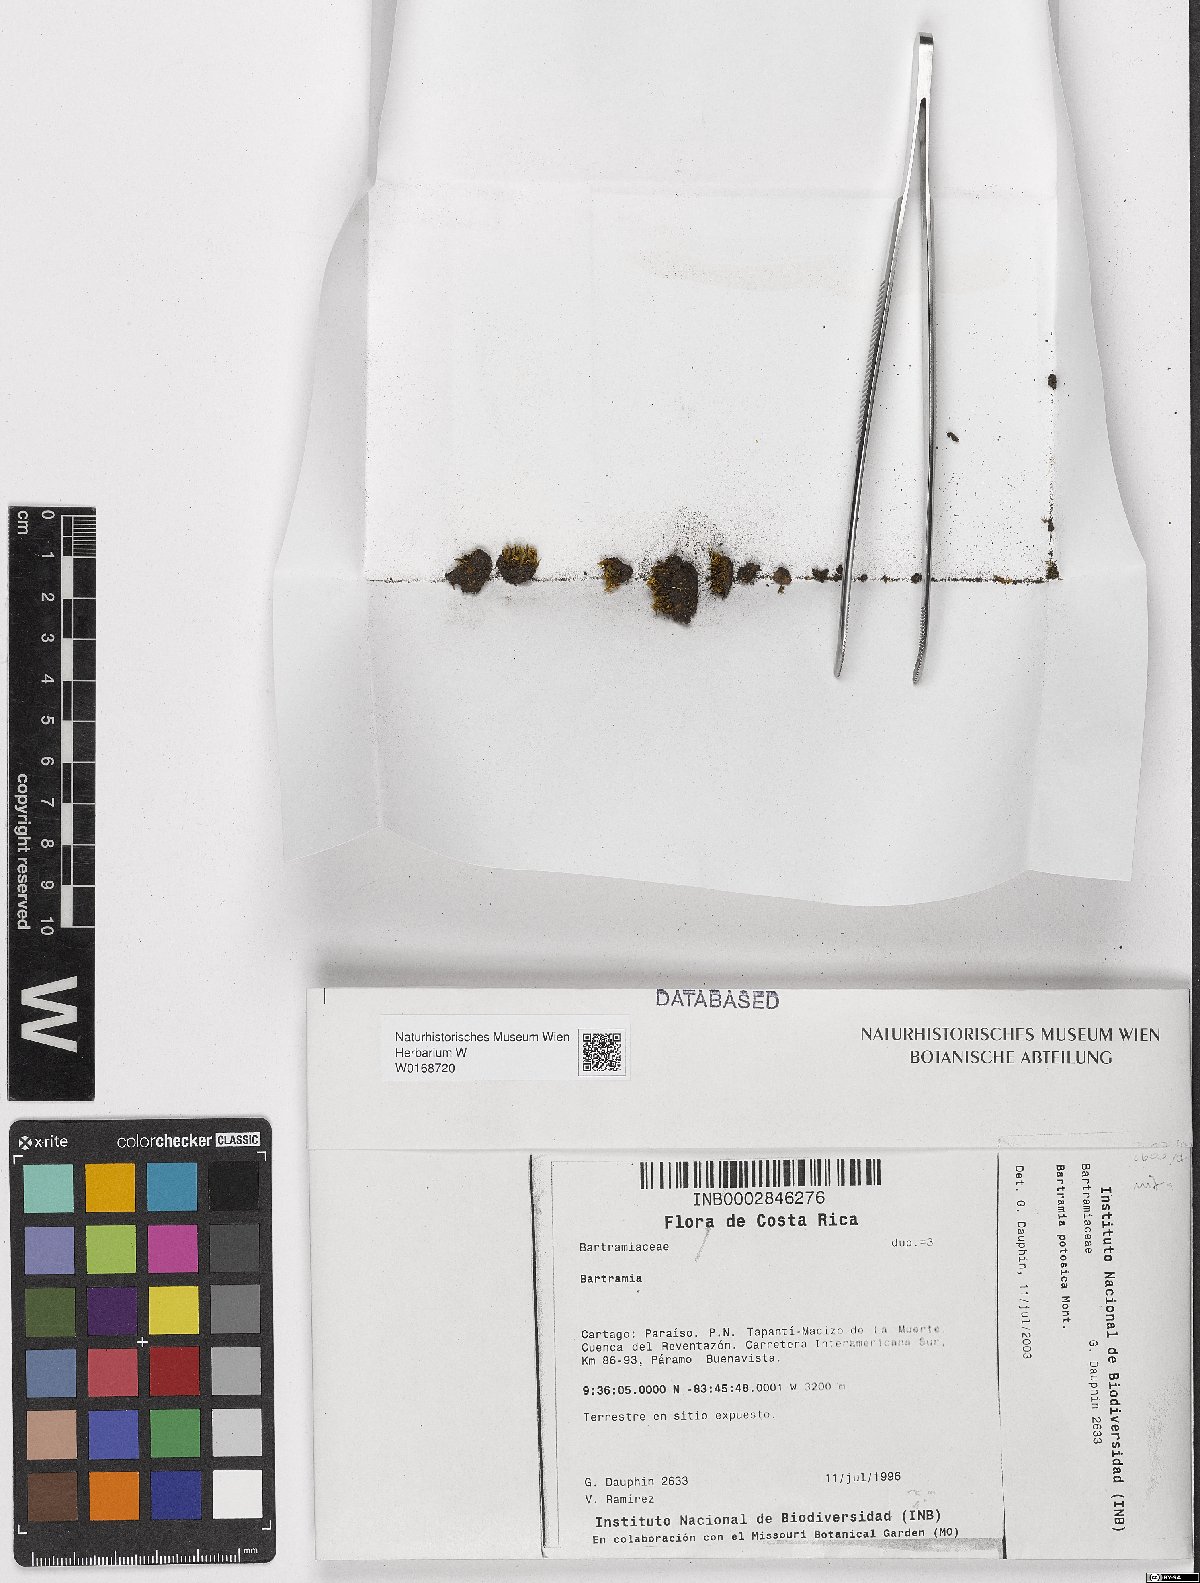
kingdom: Plantae
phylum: Bryophyta
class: Bryopsida
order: Bartramiales
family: Bartramiaceae
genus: Bartramia
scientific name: Bartramia
